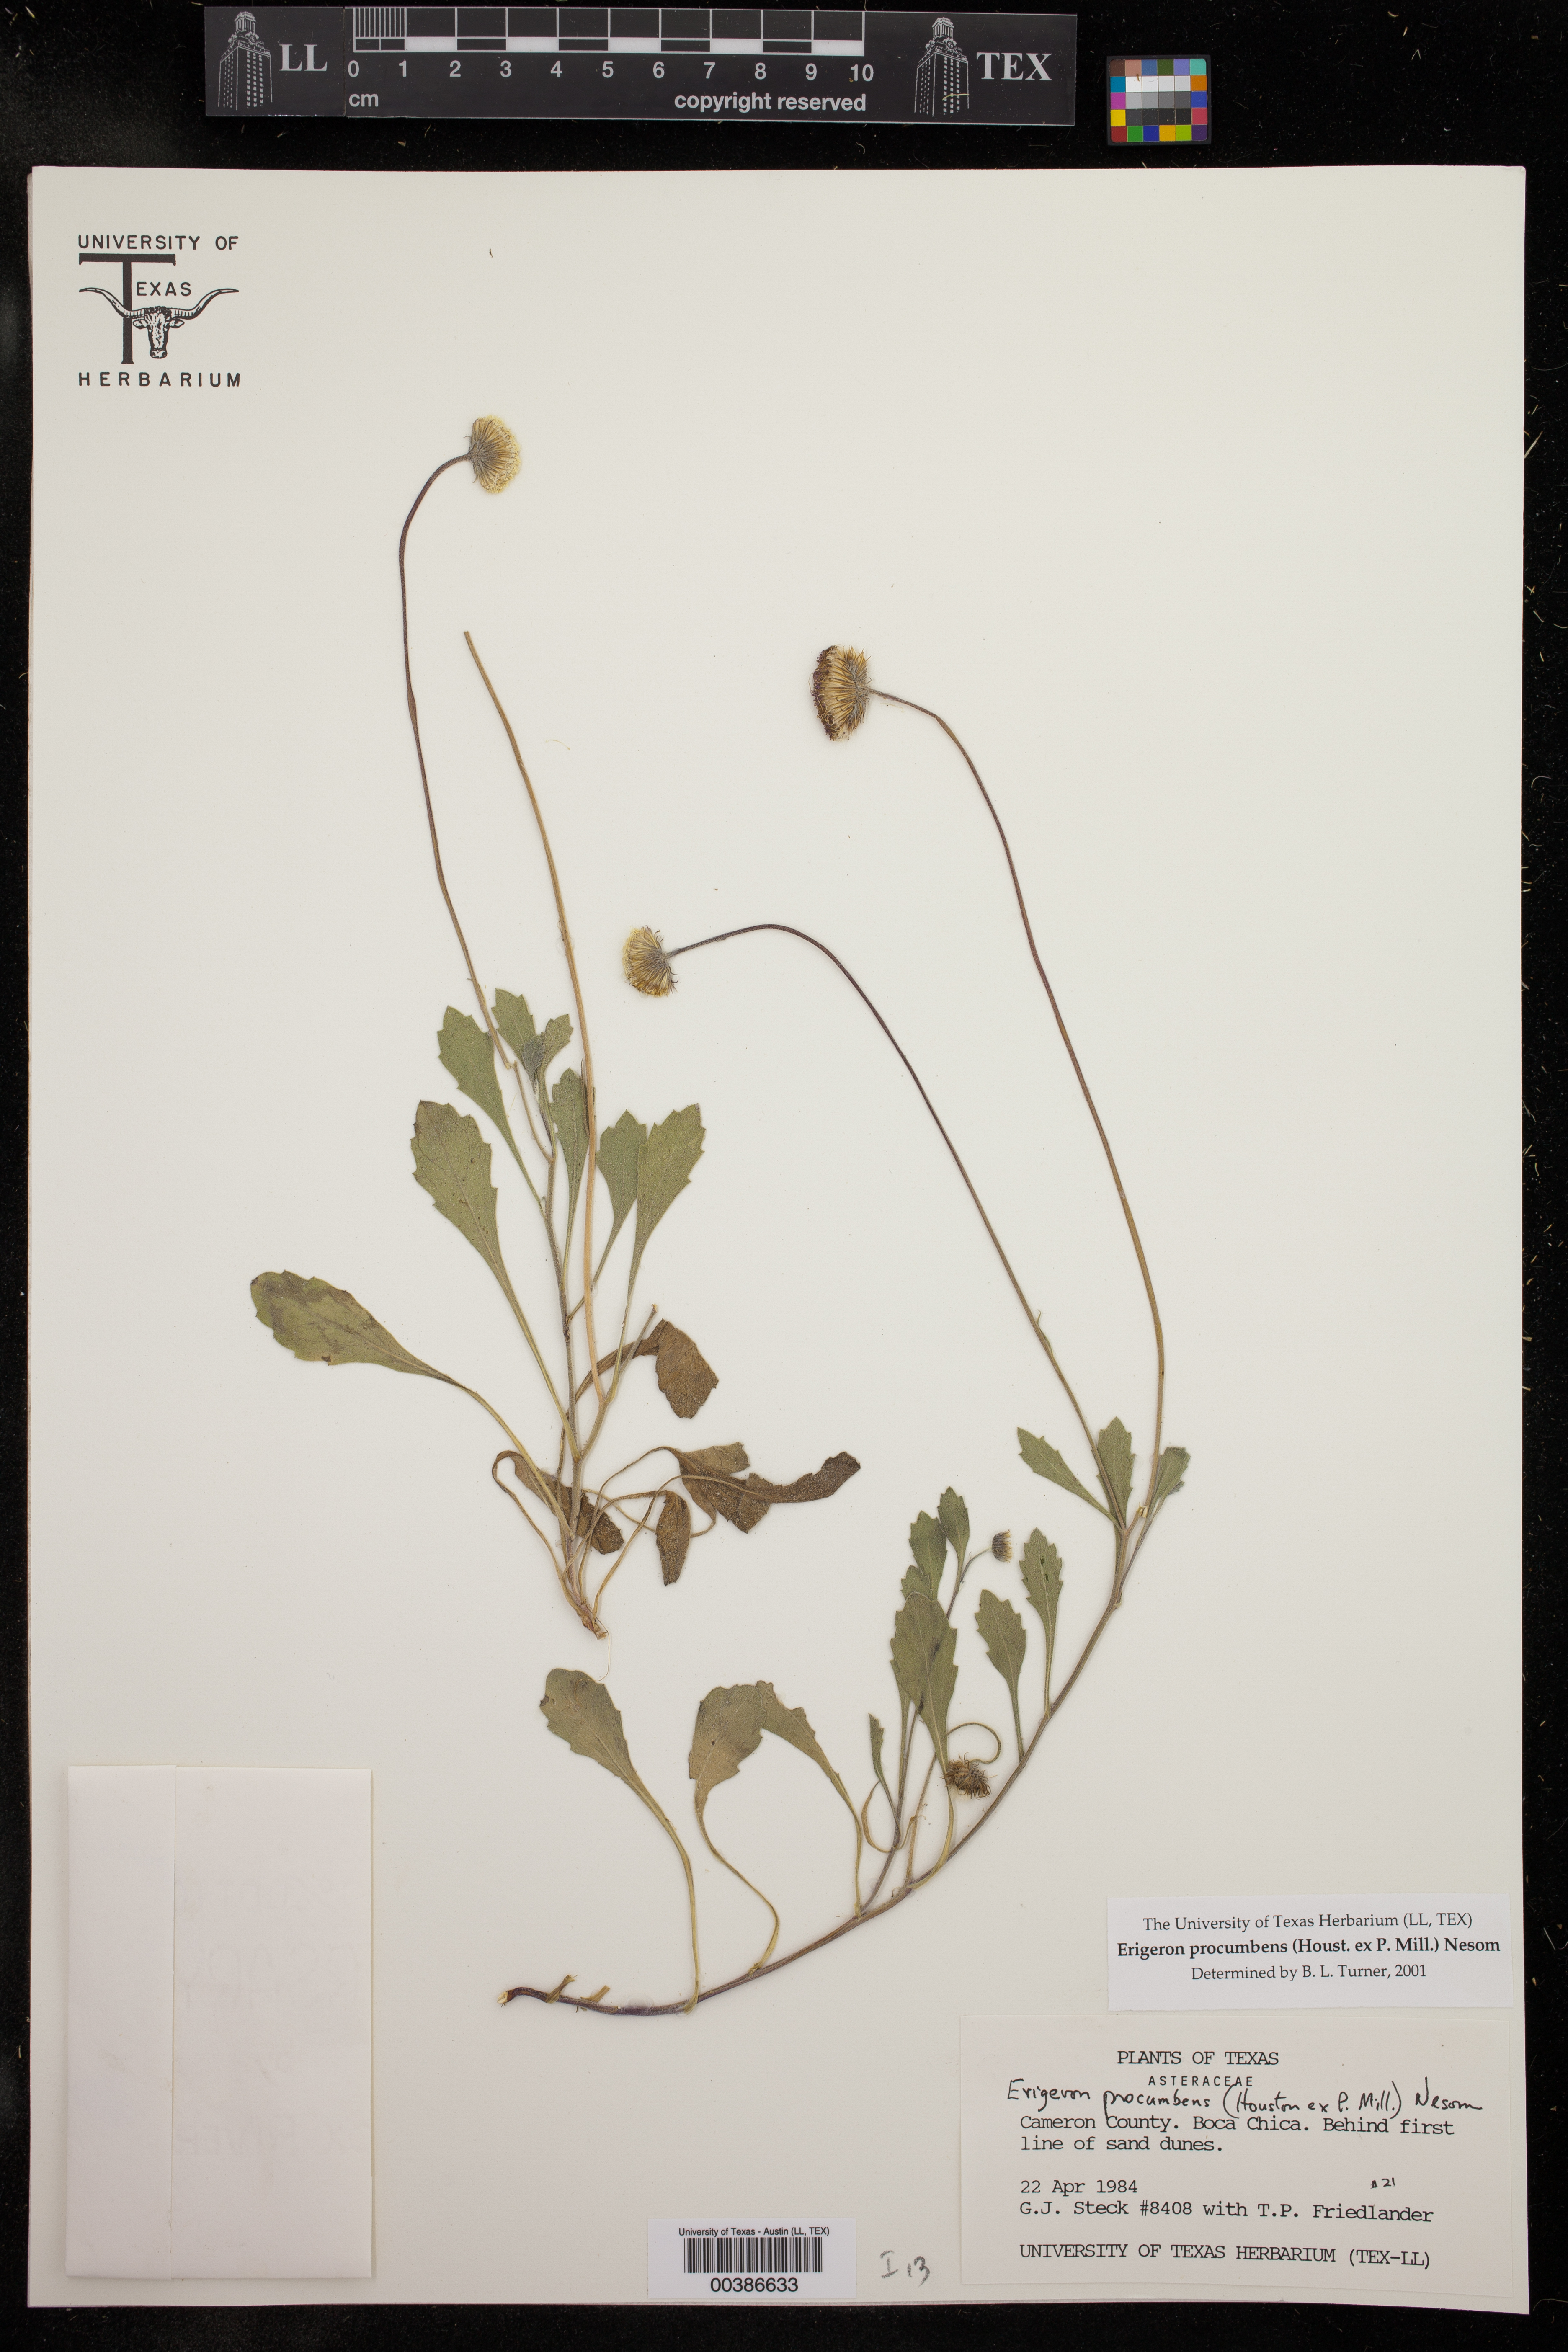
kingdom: Plantae
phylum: Tracheophyta
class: Magnoliopsida
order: Asterales
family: Asteraceae
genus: Erigeron
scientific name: Erigeron procumbens
